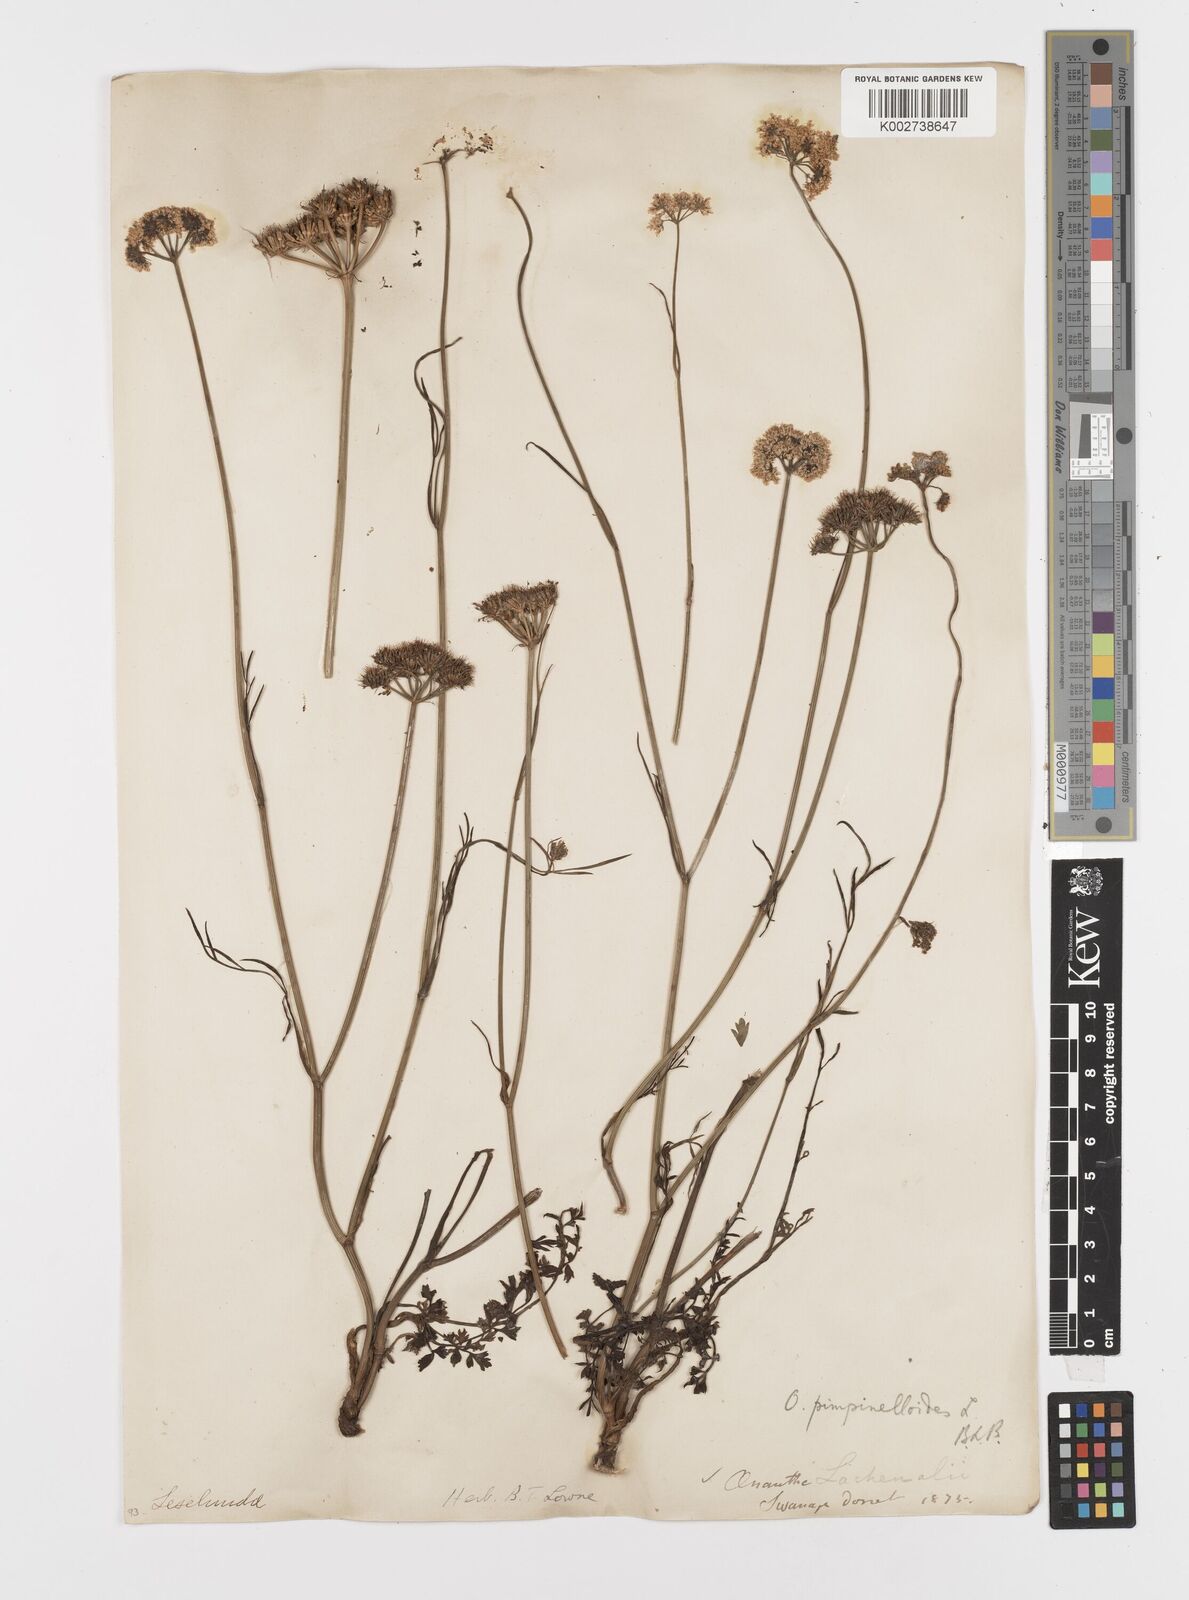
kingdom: Plantae
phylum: Tracheophyta
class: Magnoliopsida
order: Apiales
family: Apiaceae
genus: Oenanthe
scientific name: Oenanthe pimpinelloides
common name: Corky-fruited water-dropwort
